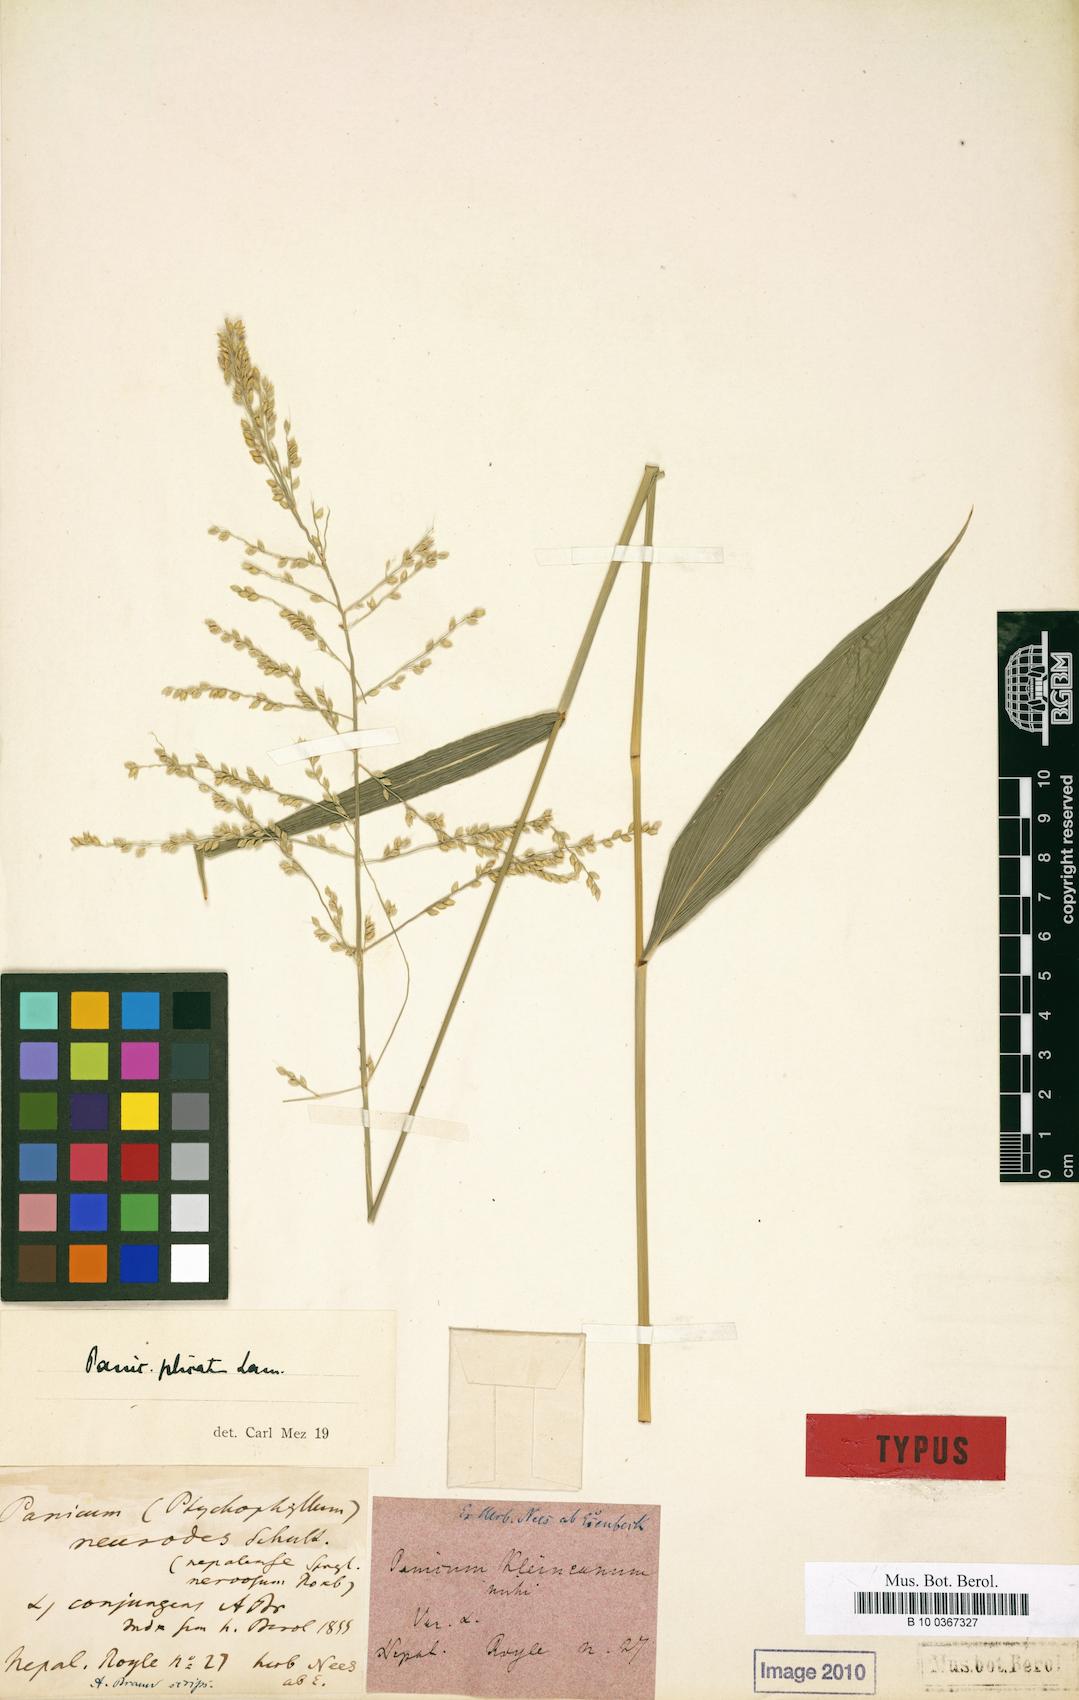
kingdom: Plantae
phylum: Tracheophyta
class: Liliopsida
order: Poales
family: Poaceae
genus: Setaria
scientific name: Setaria palmifolia
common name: Broadleaved bristlegrass
